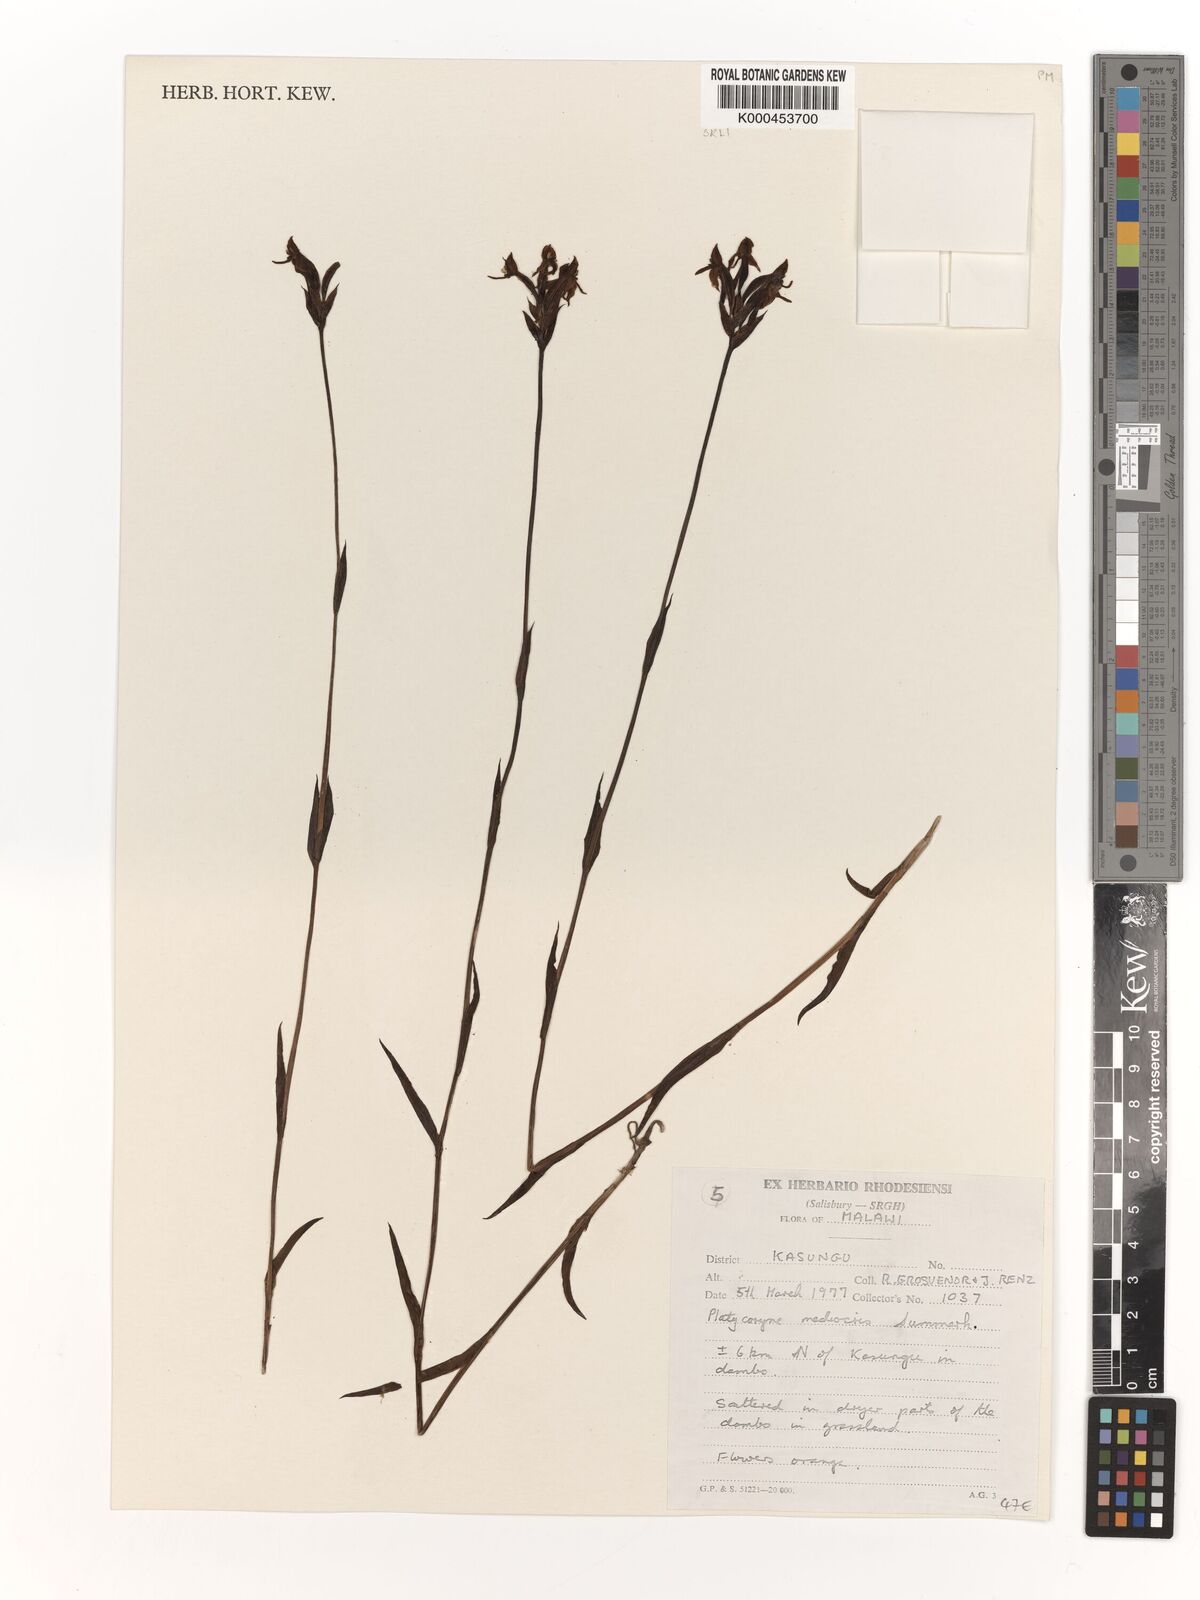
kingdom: Plantae
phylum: Tracheophyta
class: Liliopsida
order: Asparagales
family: Orchidaceae
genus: Platycoryne
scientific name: Platycoryne mediocris
